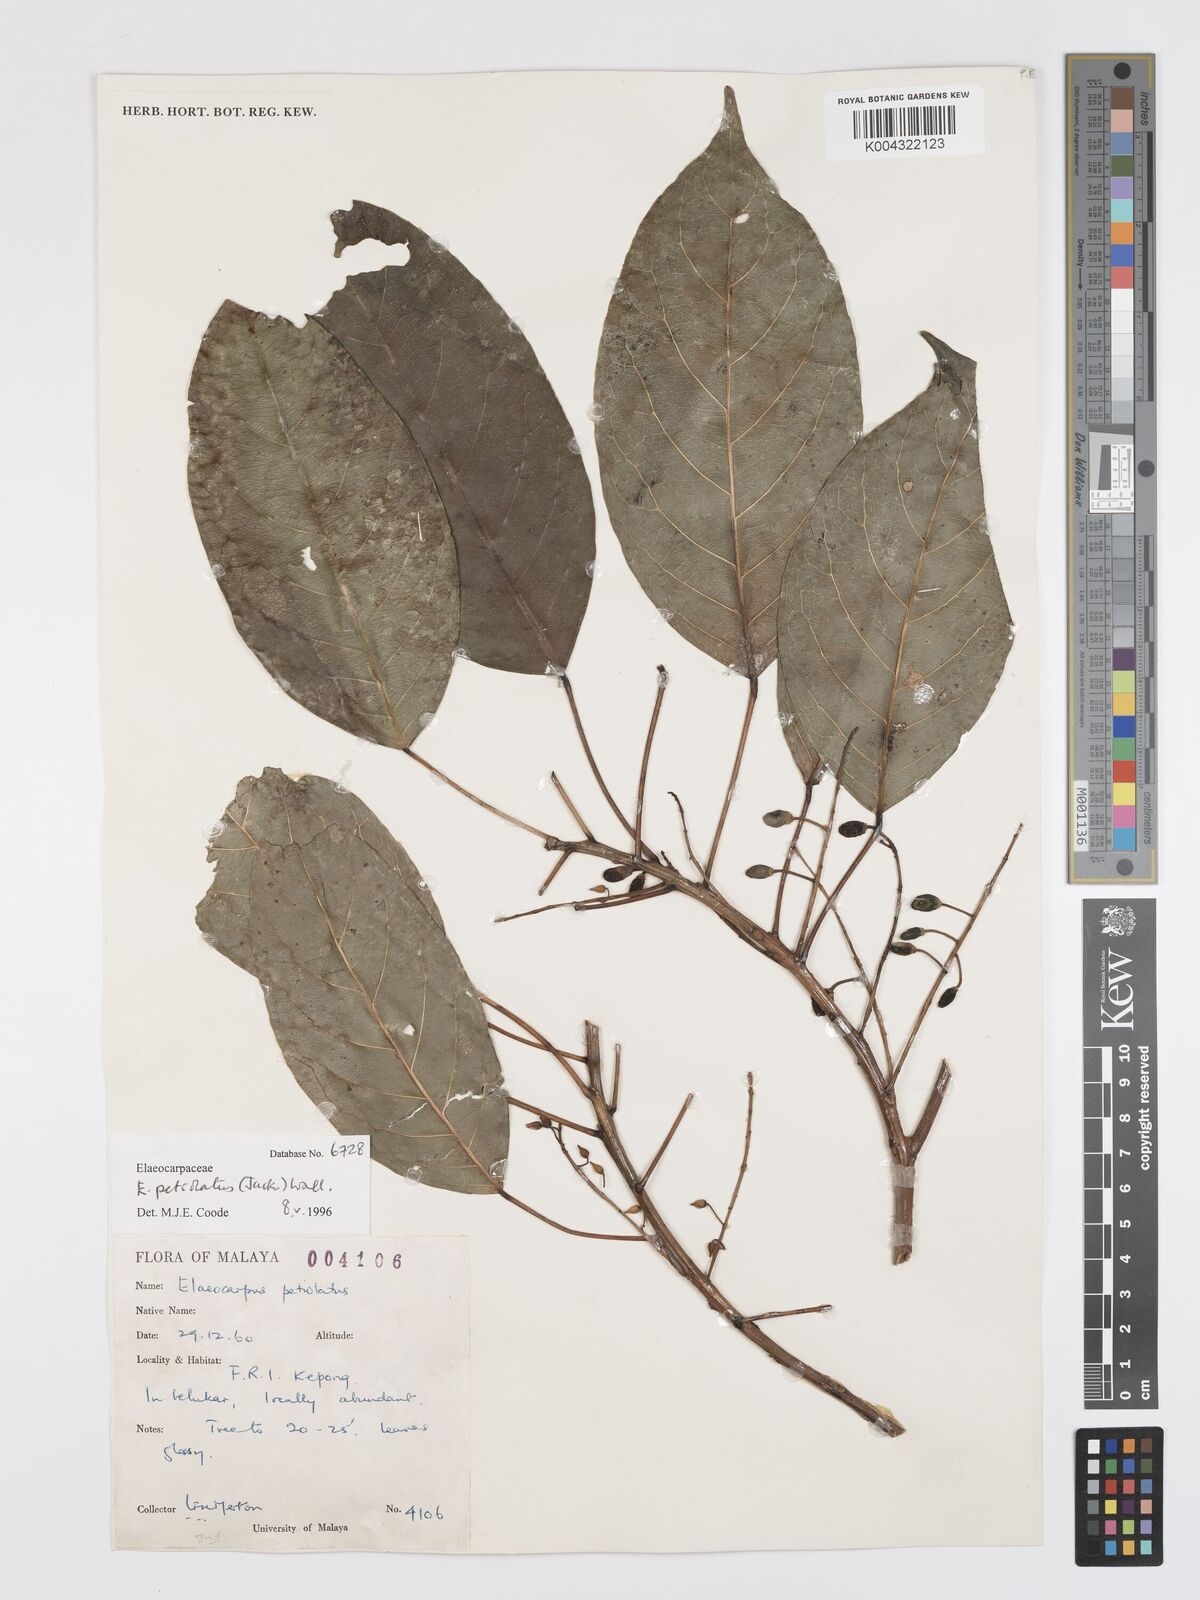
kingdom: Plantae
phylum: Tracheophyta
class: Magnoliopsida
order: Oxalidales
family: Elaeocarpaceae
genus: Elaeocarpus
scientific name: Elaeocarpus petiolatus
